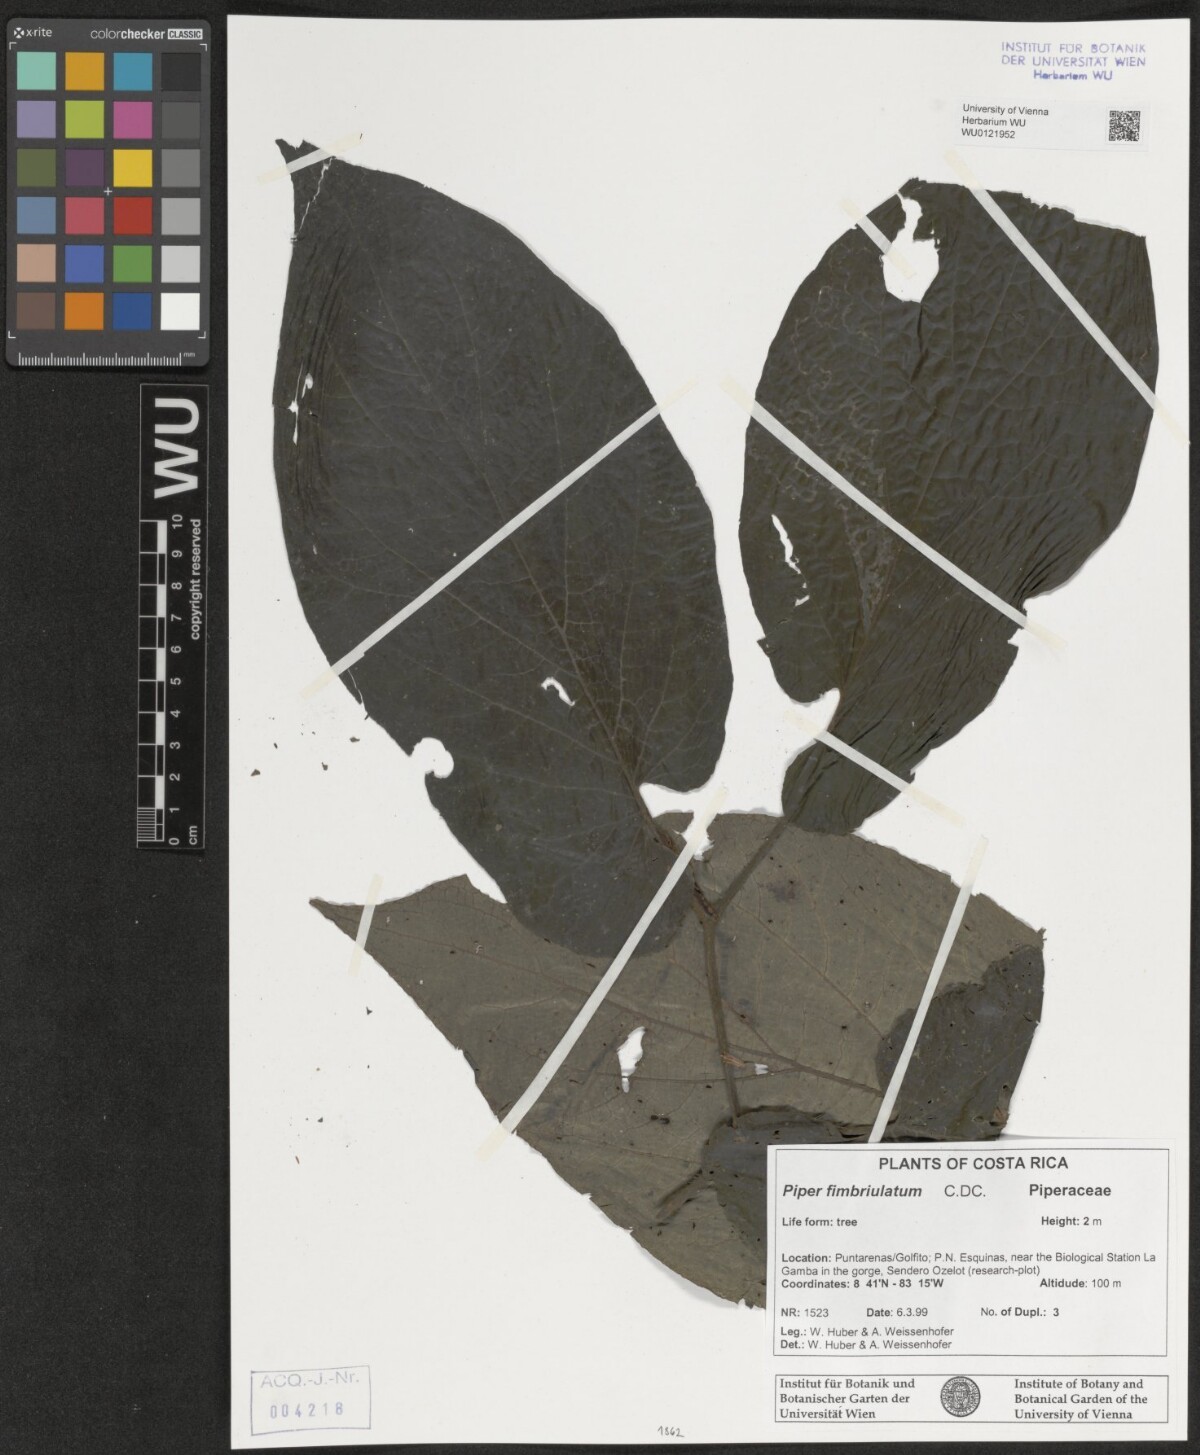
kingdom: Plantae
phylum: Tracheophyta
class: Magnoliopsida
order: Piperales
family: Piperaceae
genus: Piper
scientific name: Piper fimbriulatum
